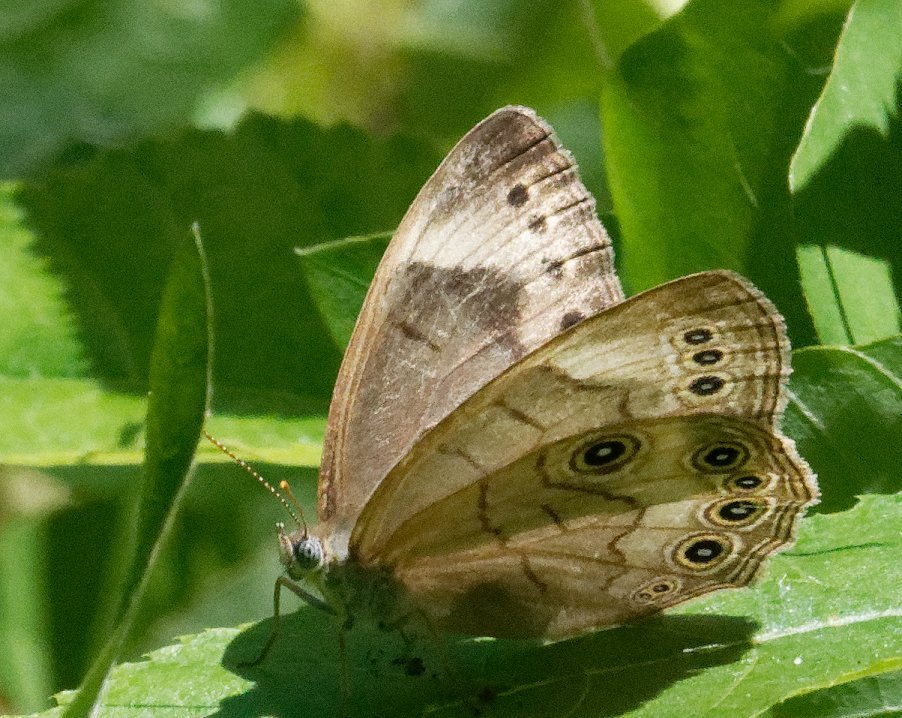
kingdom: Animalia
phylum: Arthropoda
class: Insecta
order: Lepidoptera
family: Nymphalidae
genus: Lethe
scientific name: Lethe eurydice
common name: Appalachian Eyed Brown
